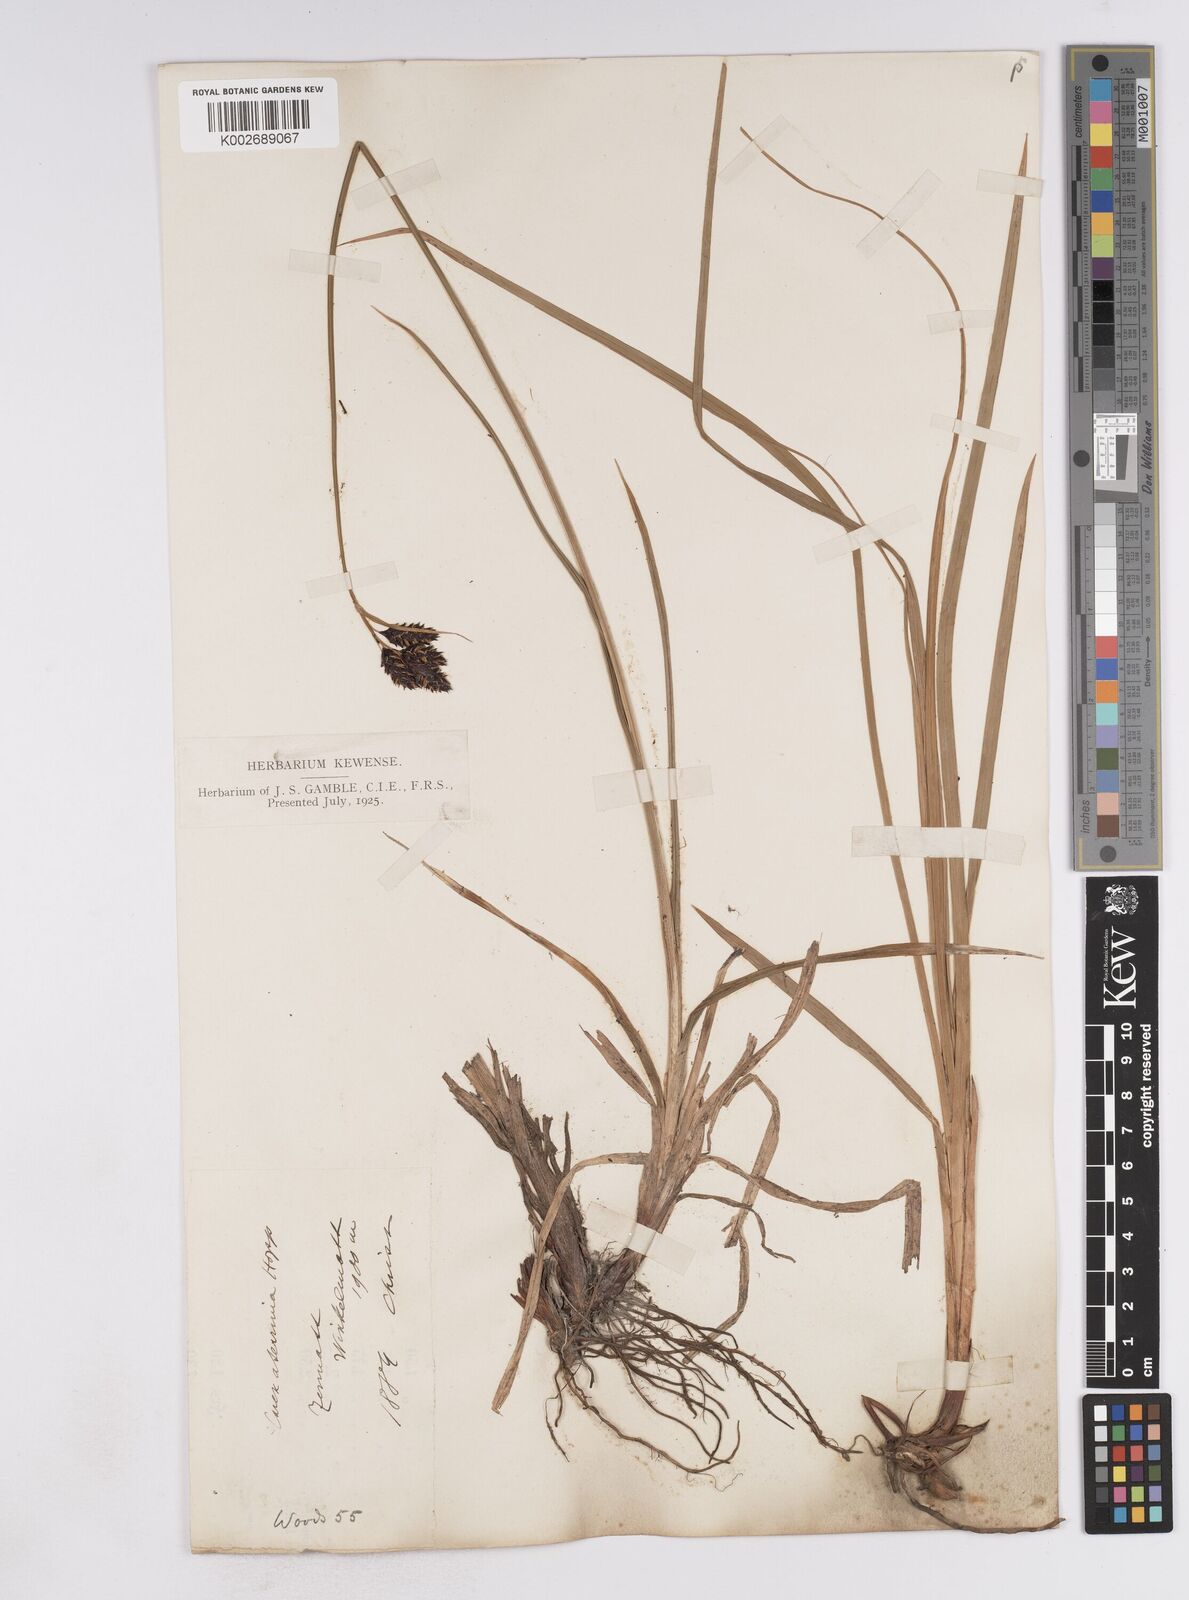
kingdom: Plantae
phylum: Tracheophyta
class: Liliopsida
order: Poales
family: Cyperaceae
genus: Carex
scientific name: Carex atrata
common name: Black alpine sedge
